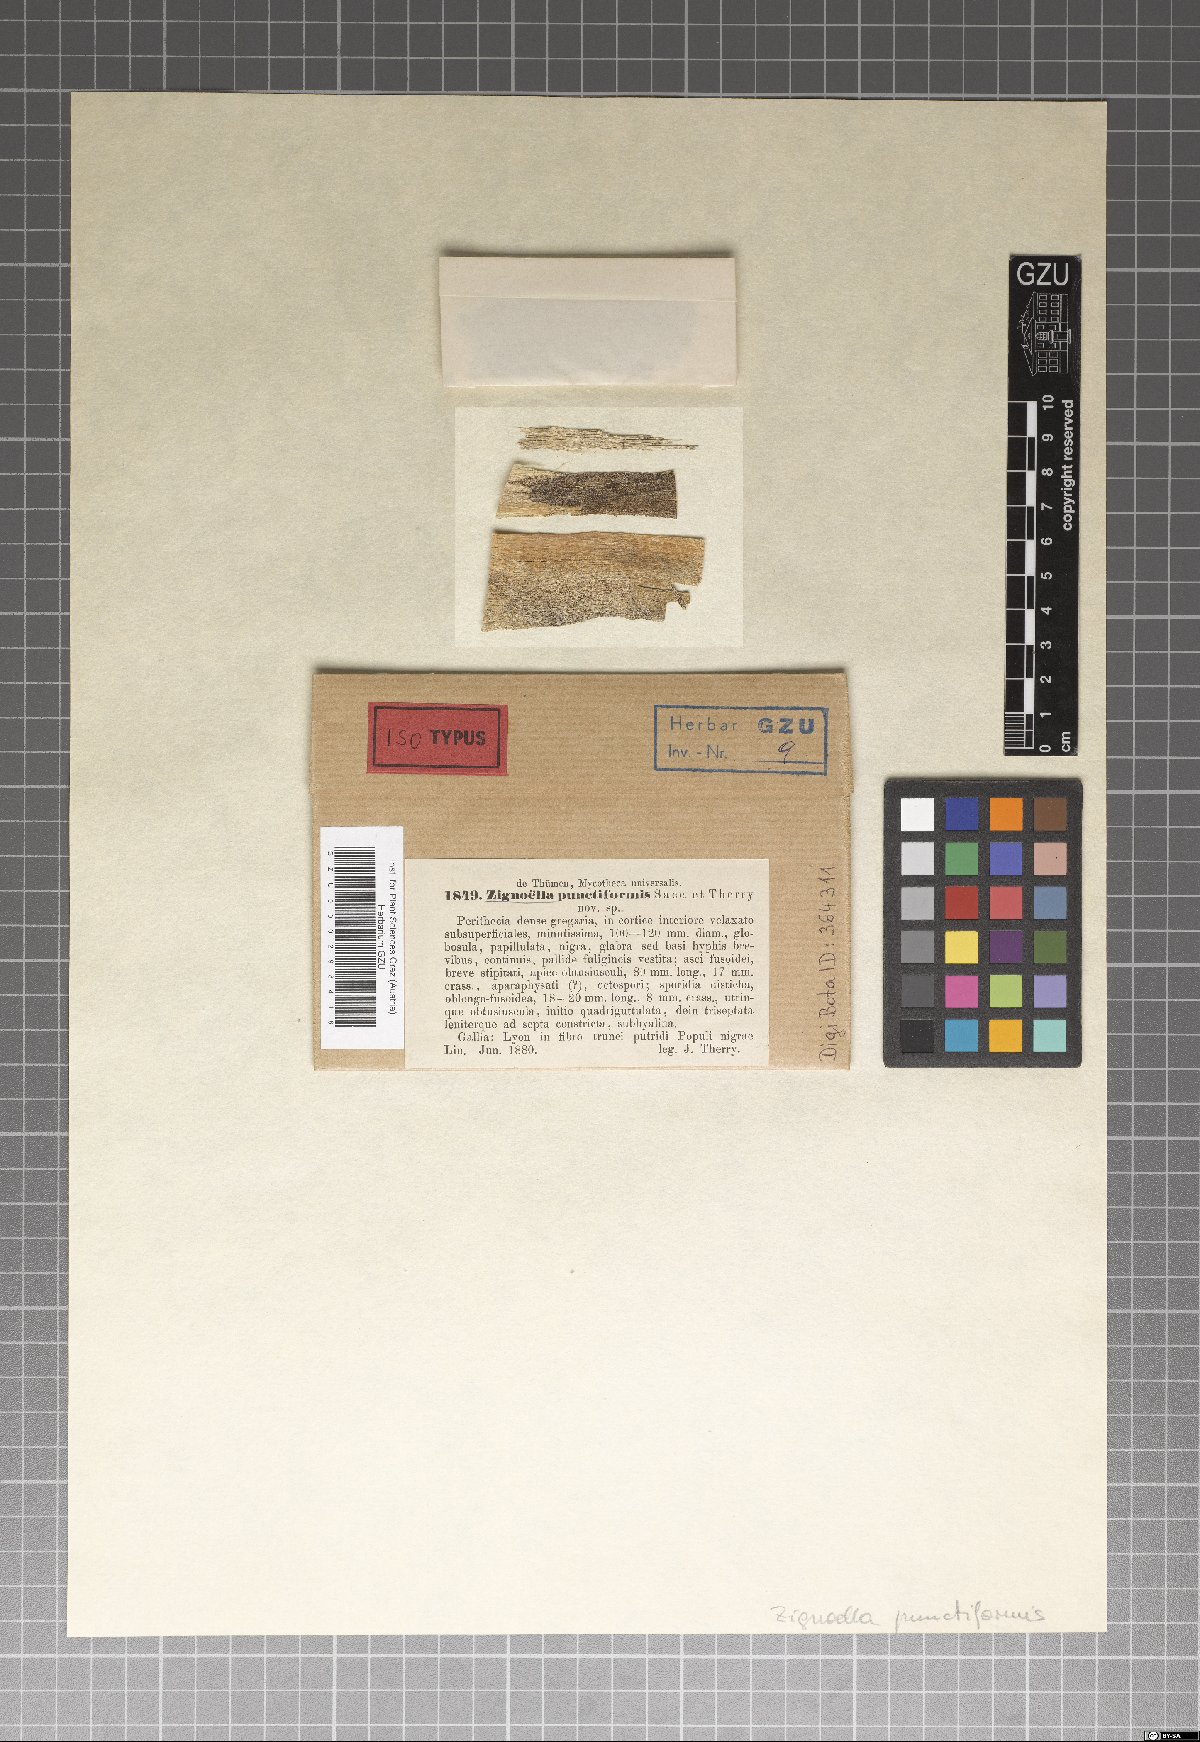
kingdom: Fungi
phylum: Ascomycota
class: Sordariomycetes
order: Chaetosphaeriales
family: Chaetosphaeriaceae
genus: Zignoella
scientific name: Zignoella punctiformis
